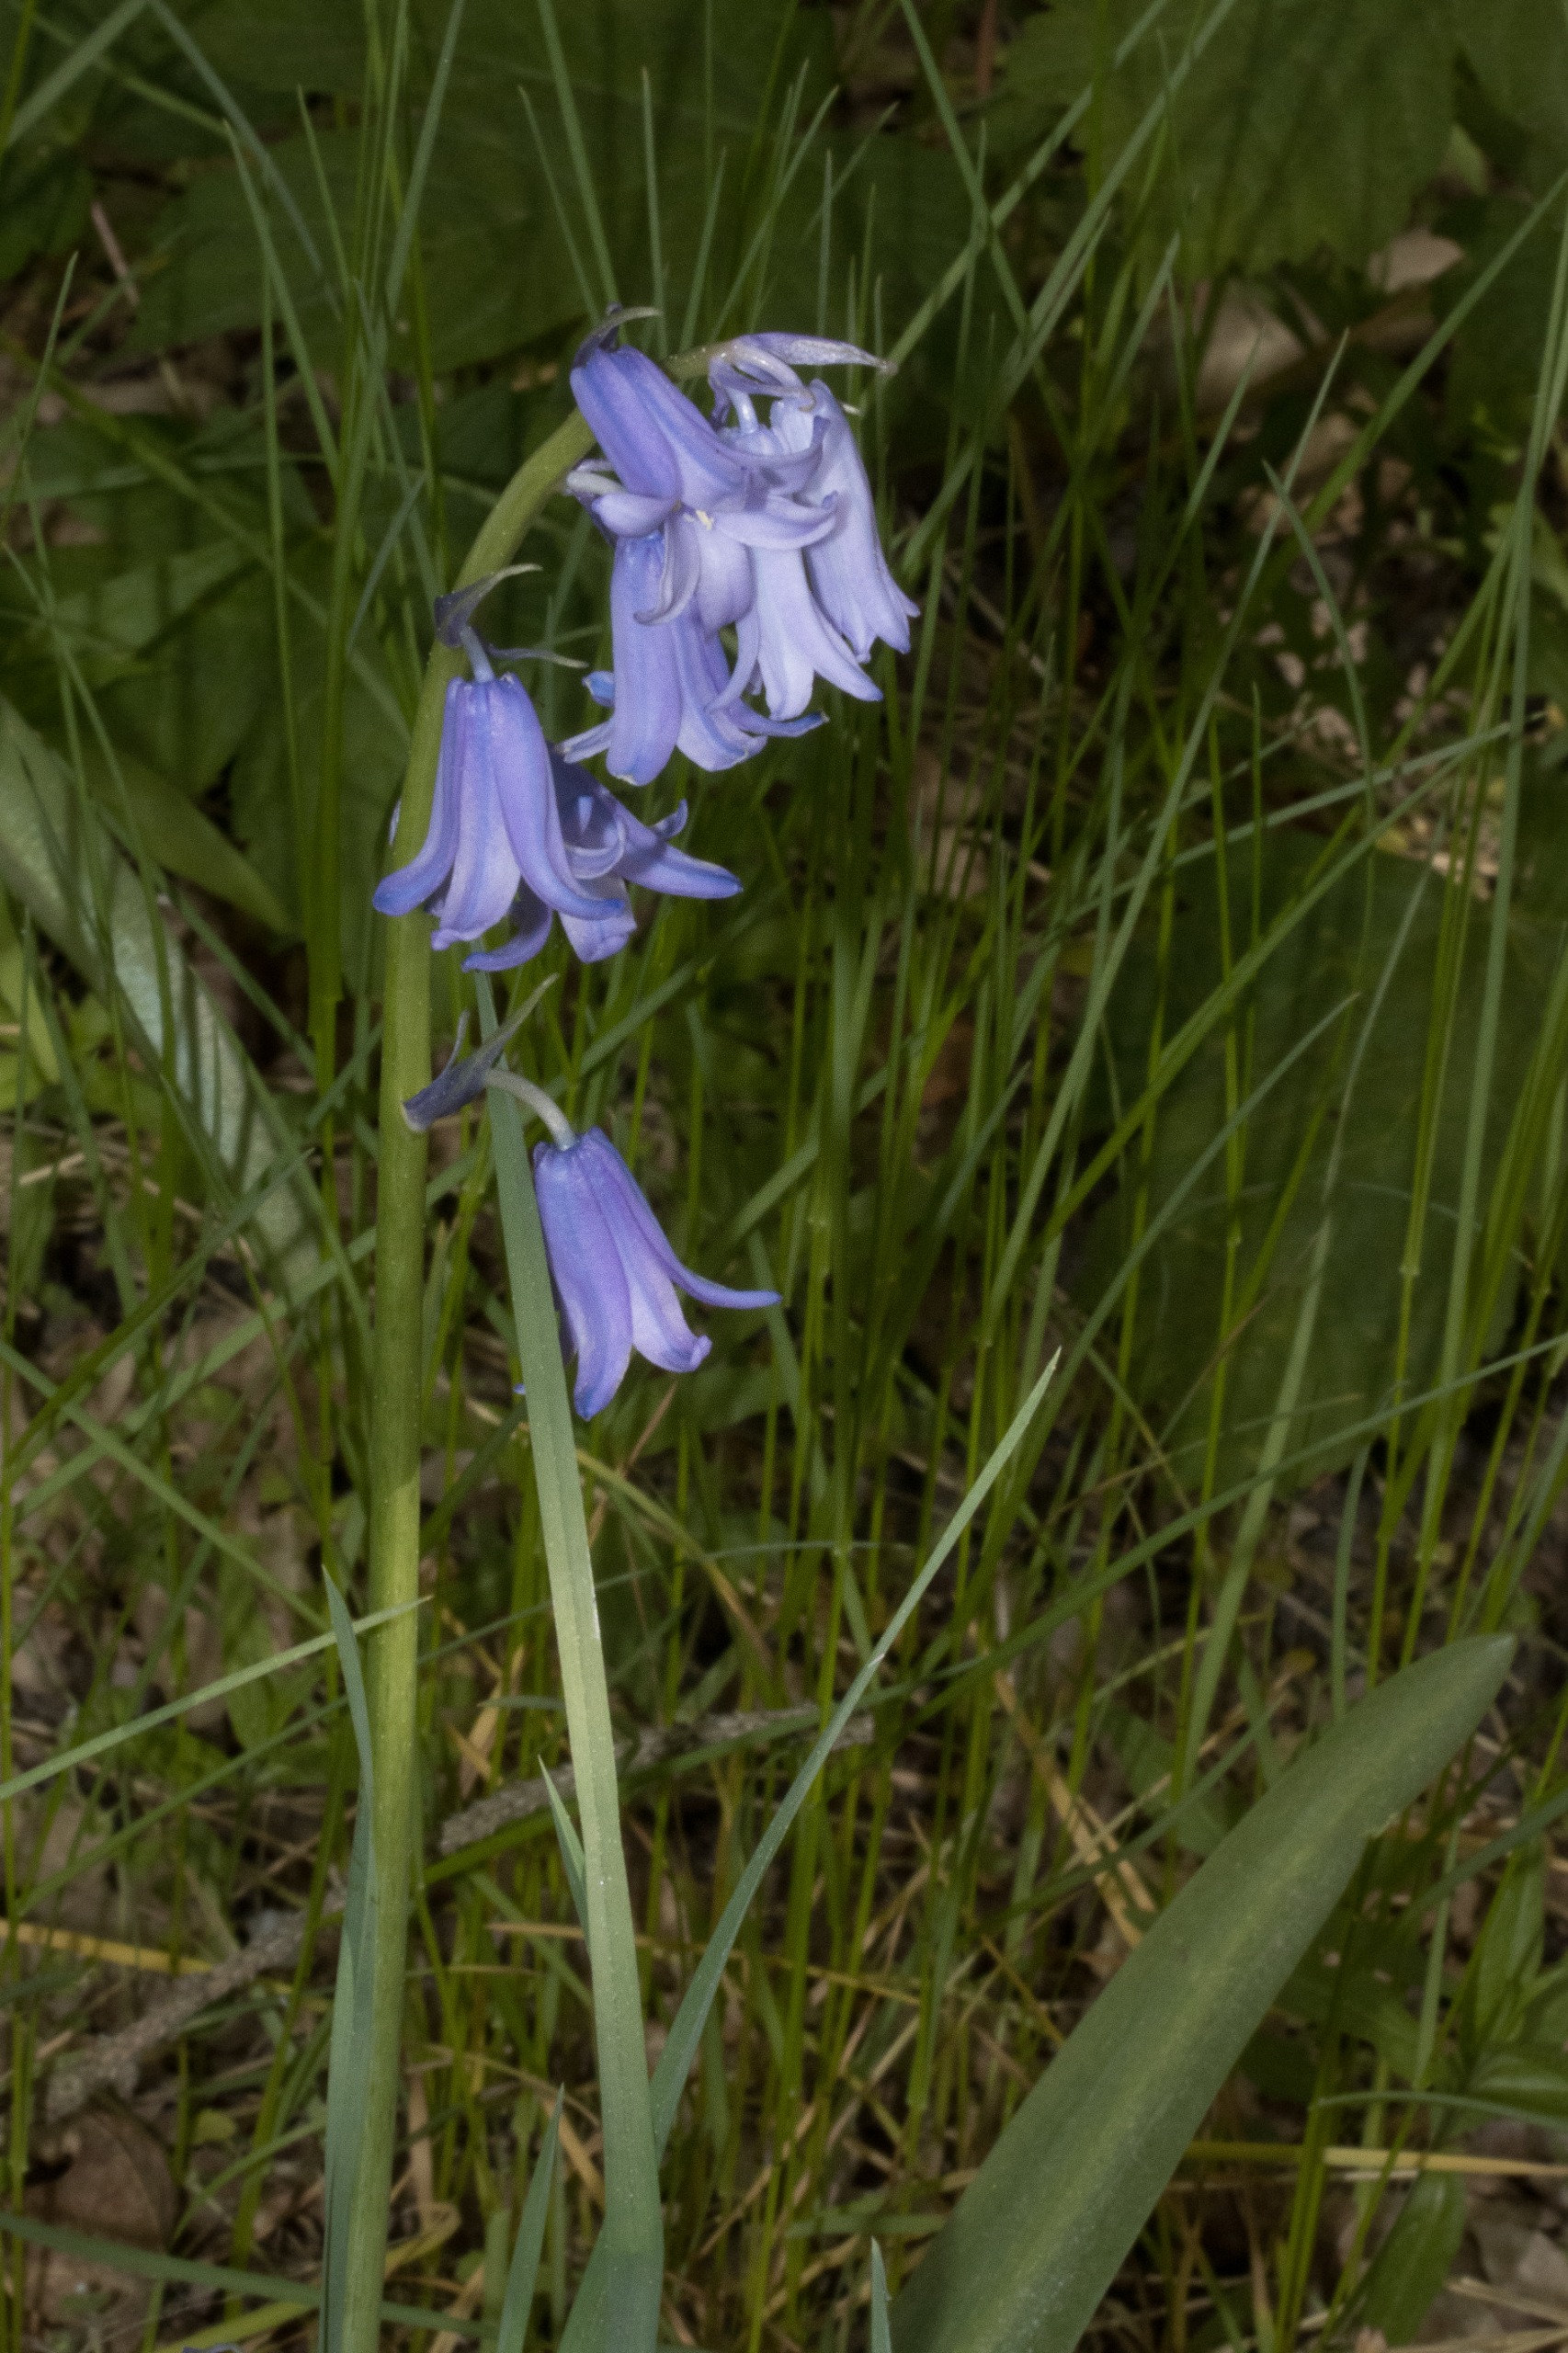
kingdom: Plantae
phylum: Tracheophyta
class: Liliopsida
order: Asparagales
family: Asparagaceae
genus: Hyacinthoides
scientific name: Hyacinthoides massartiana
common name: Hybrid-klokkeskilla
